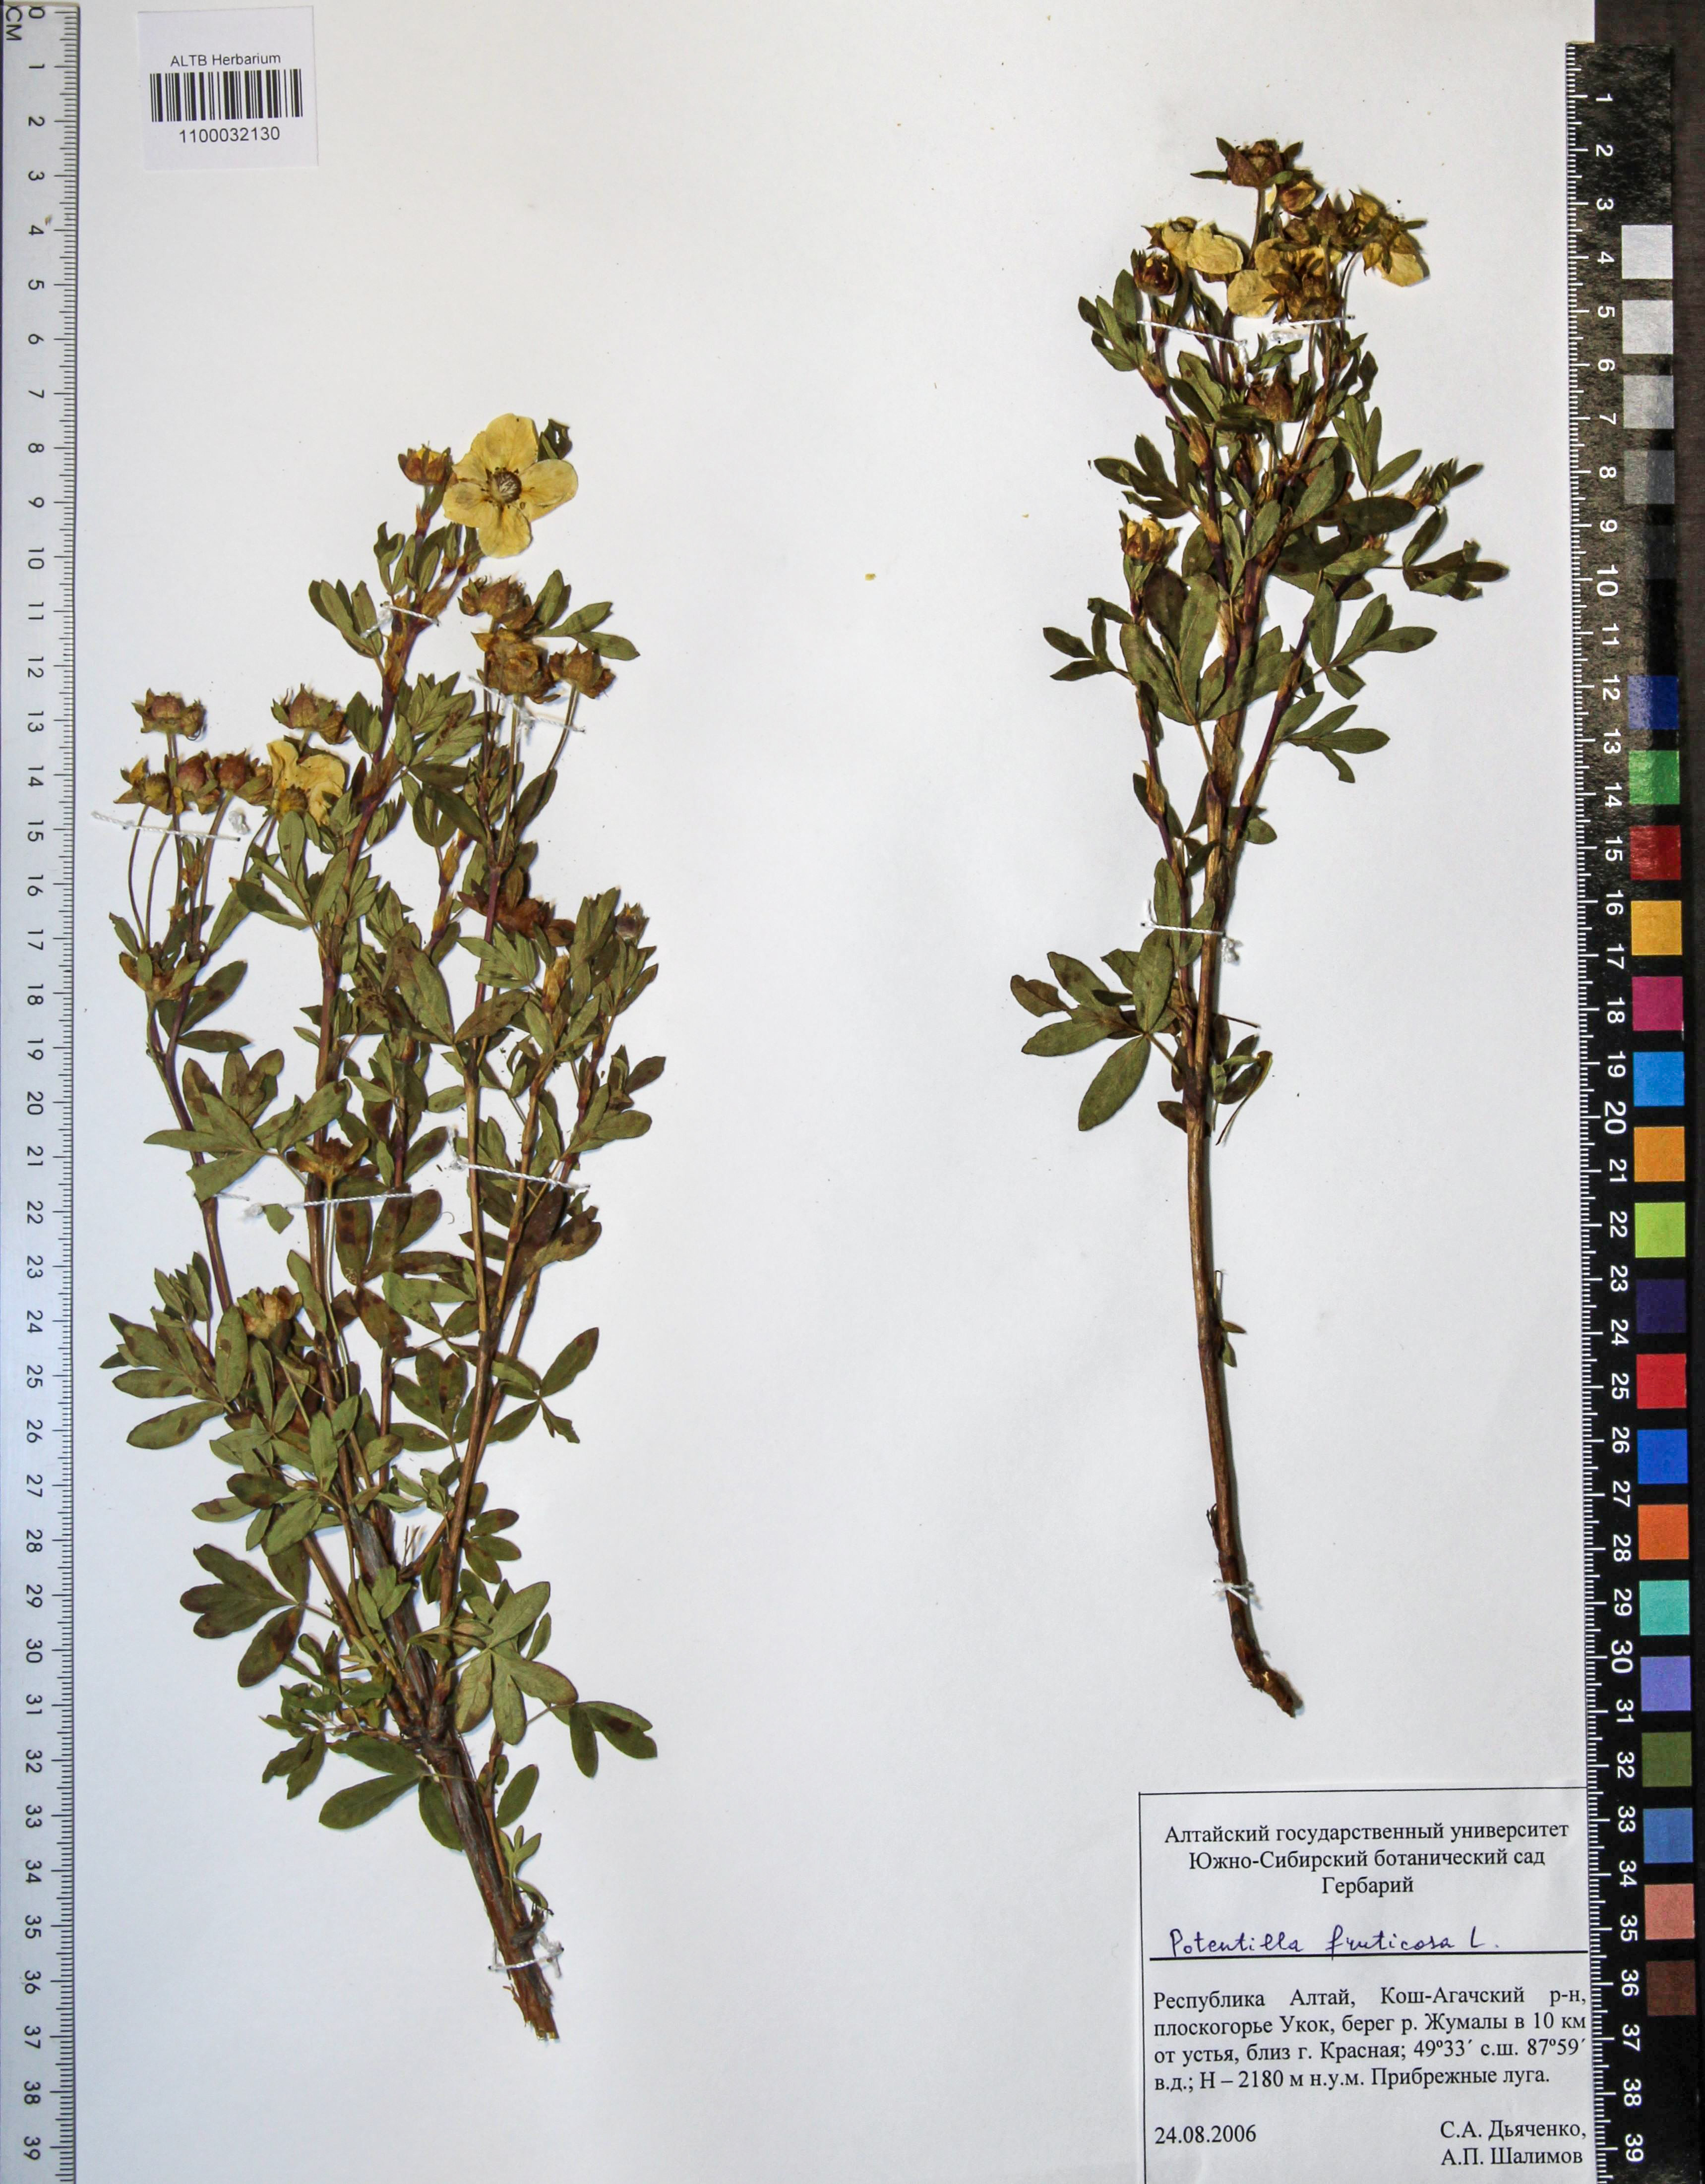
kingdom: Plantae
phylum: Tracheophyta
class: Magnoliopsida
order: Rosales
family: Rosaceae
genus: Dasiphora
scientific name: Dasiphora fruticosa
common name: Shrubby cinquefoil
